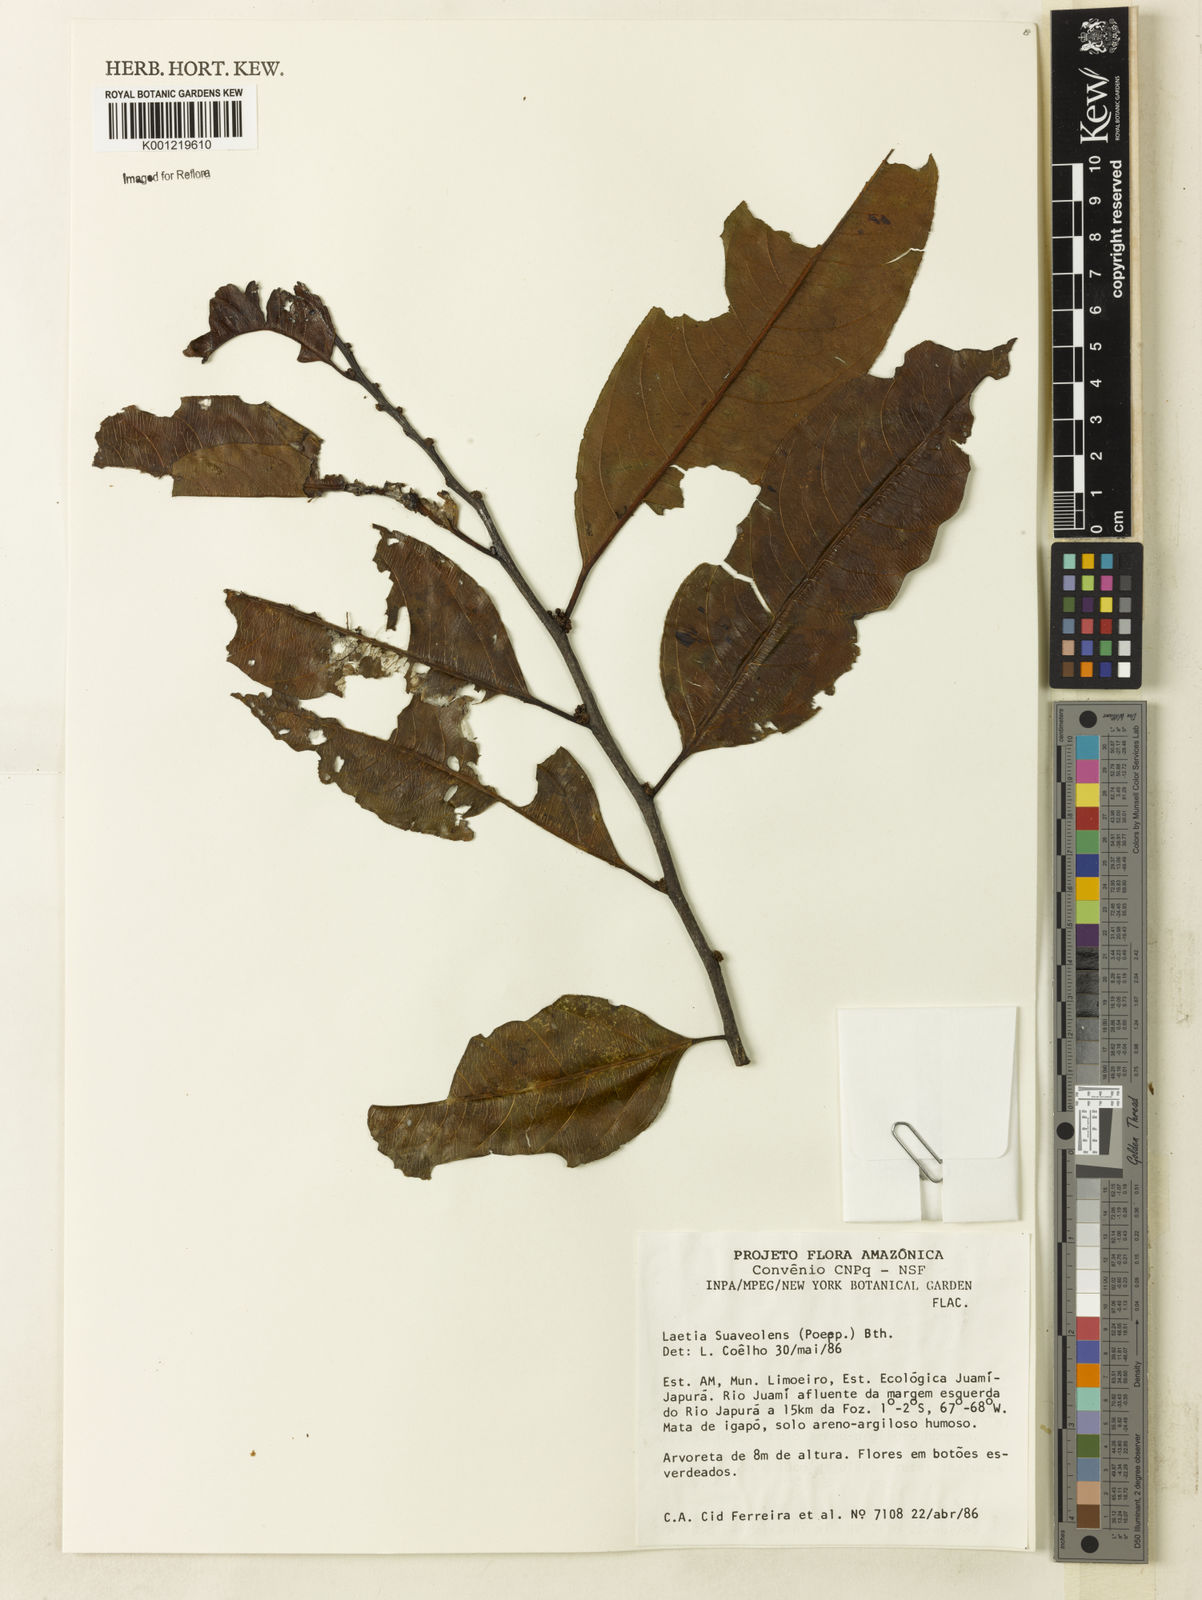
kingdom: Plantae
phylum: Tracheophyta
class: Magnoliopsida
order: Malpighiales
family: Salicaceae
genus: Casearia
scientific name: Casearia suaveolens
